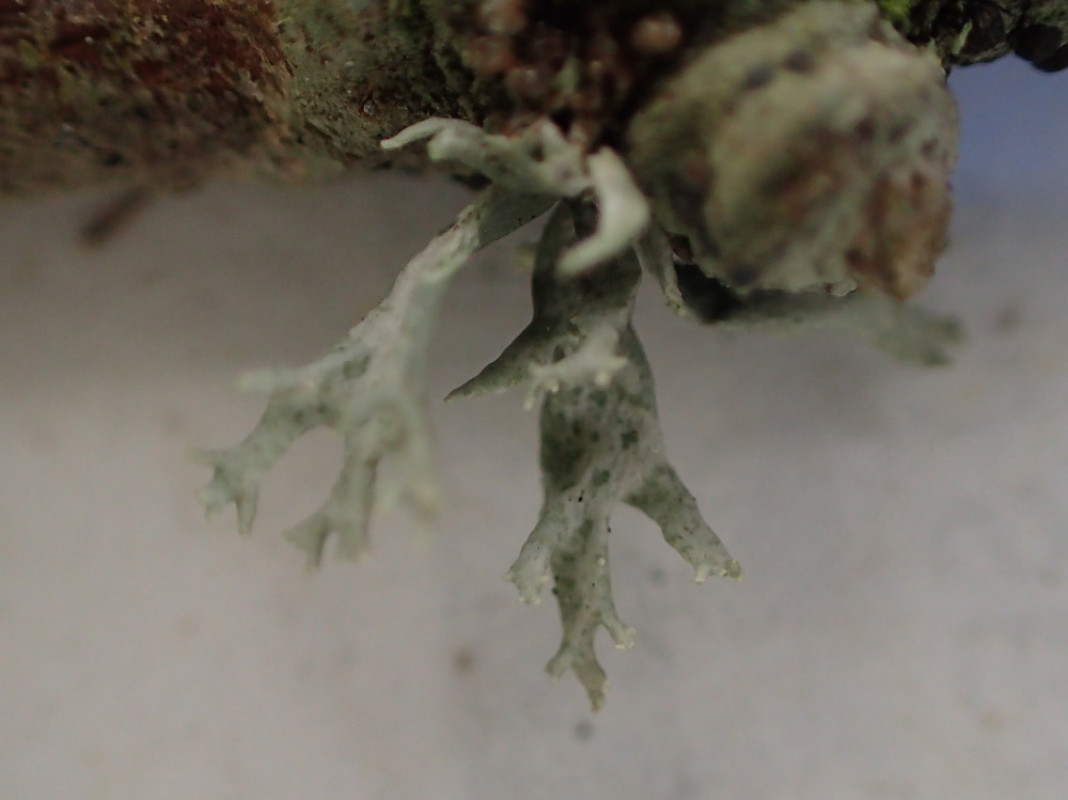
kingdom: Fungi
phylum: Ascomycota
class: Lecanoromycetes
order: Lecanorales
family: Ramalinaceae
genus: Ramalina
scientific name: Ramalina fastigiata
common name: tue-grenlav
